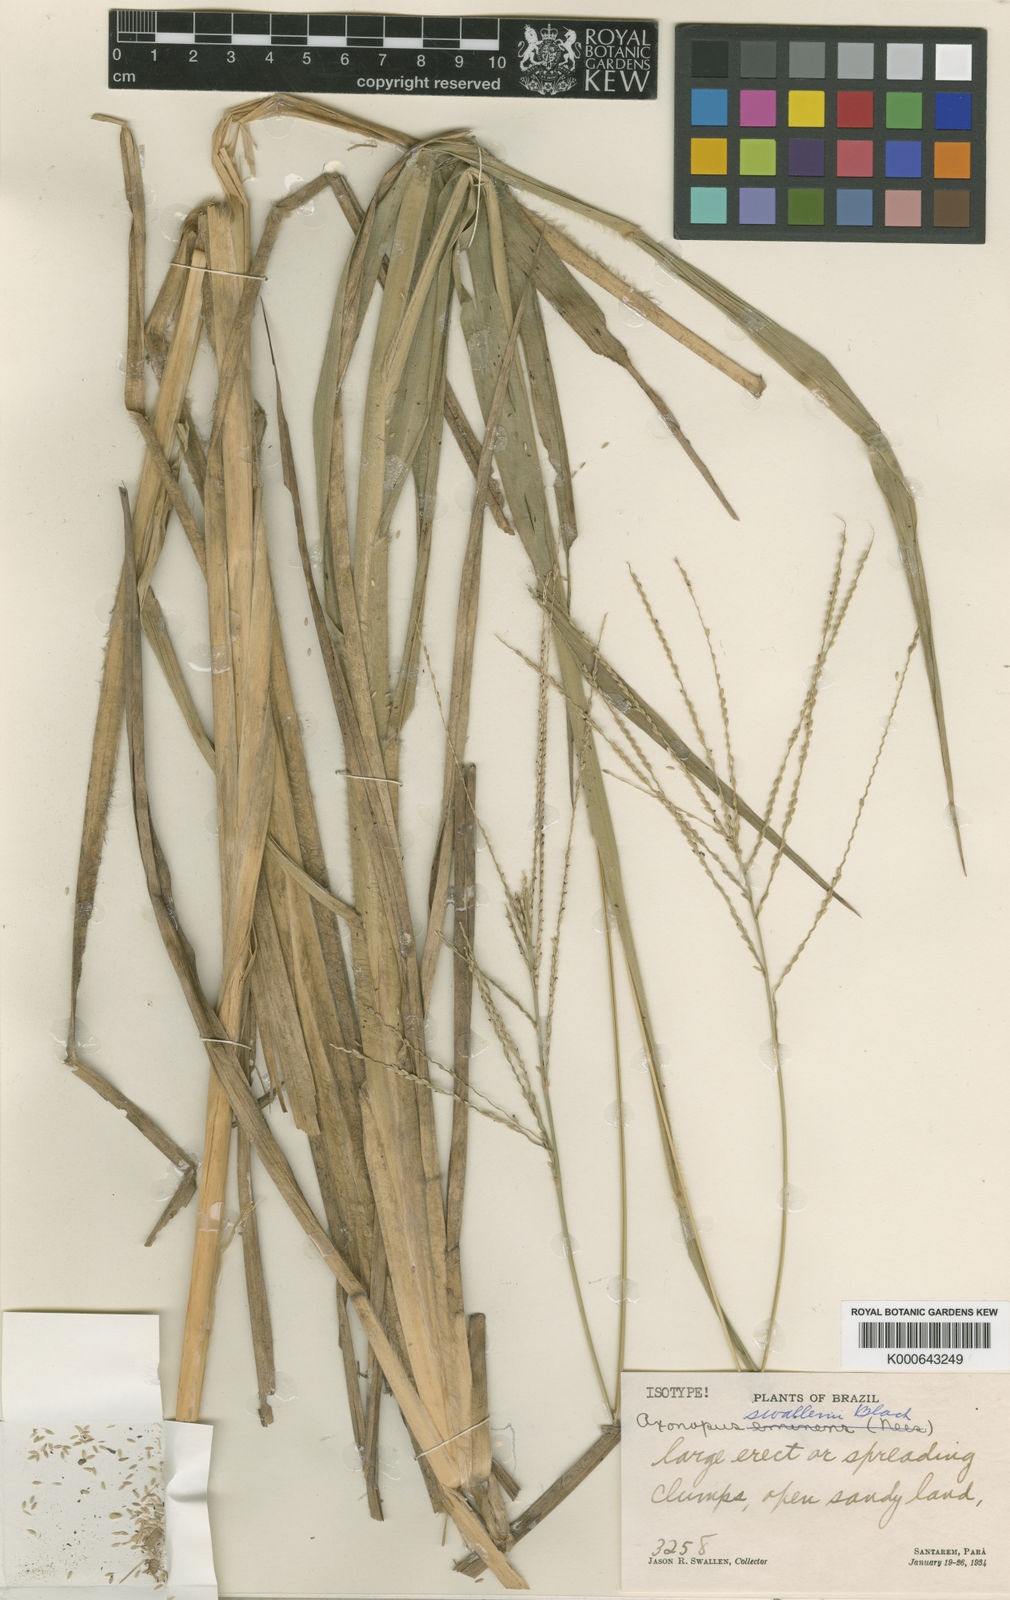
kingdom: Plantae
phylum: Tracheophyta
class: Liliopsida
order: Poales
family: Poaceae
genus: Axonopus
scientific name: Axonopus siccus
